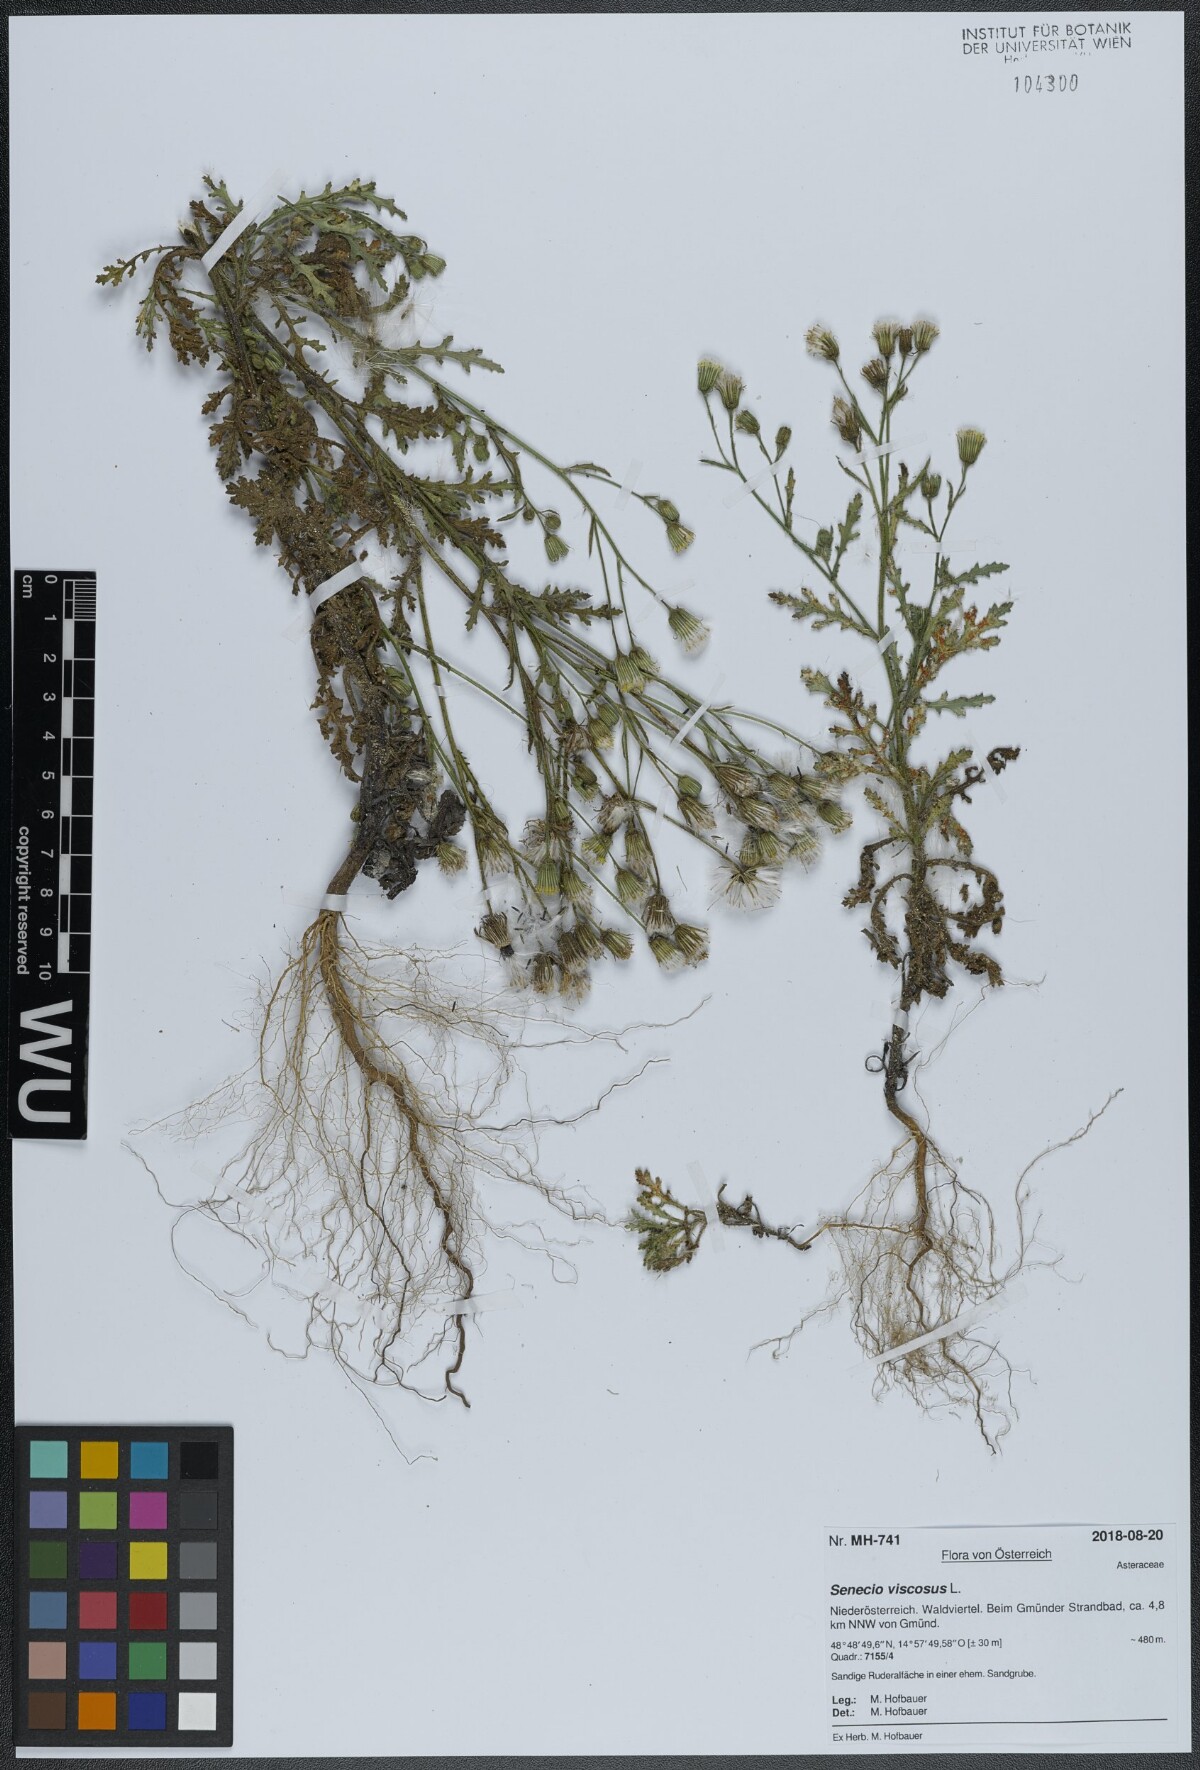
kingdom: Plantae
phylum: Tracheophyta
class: Magnoliopsida
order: Asterales
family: Asteraceae
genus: Senecio
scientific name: Senecio viscosus
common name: Sticky groundsel
